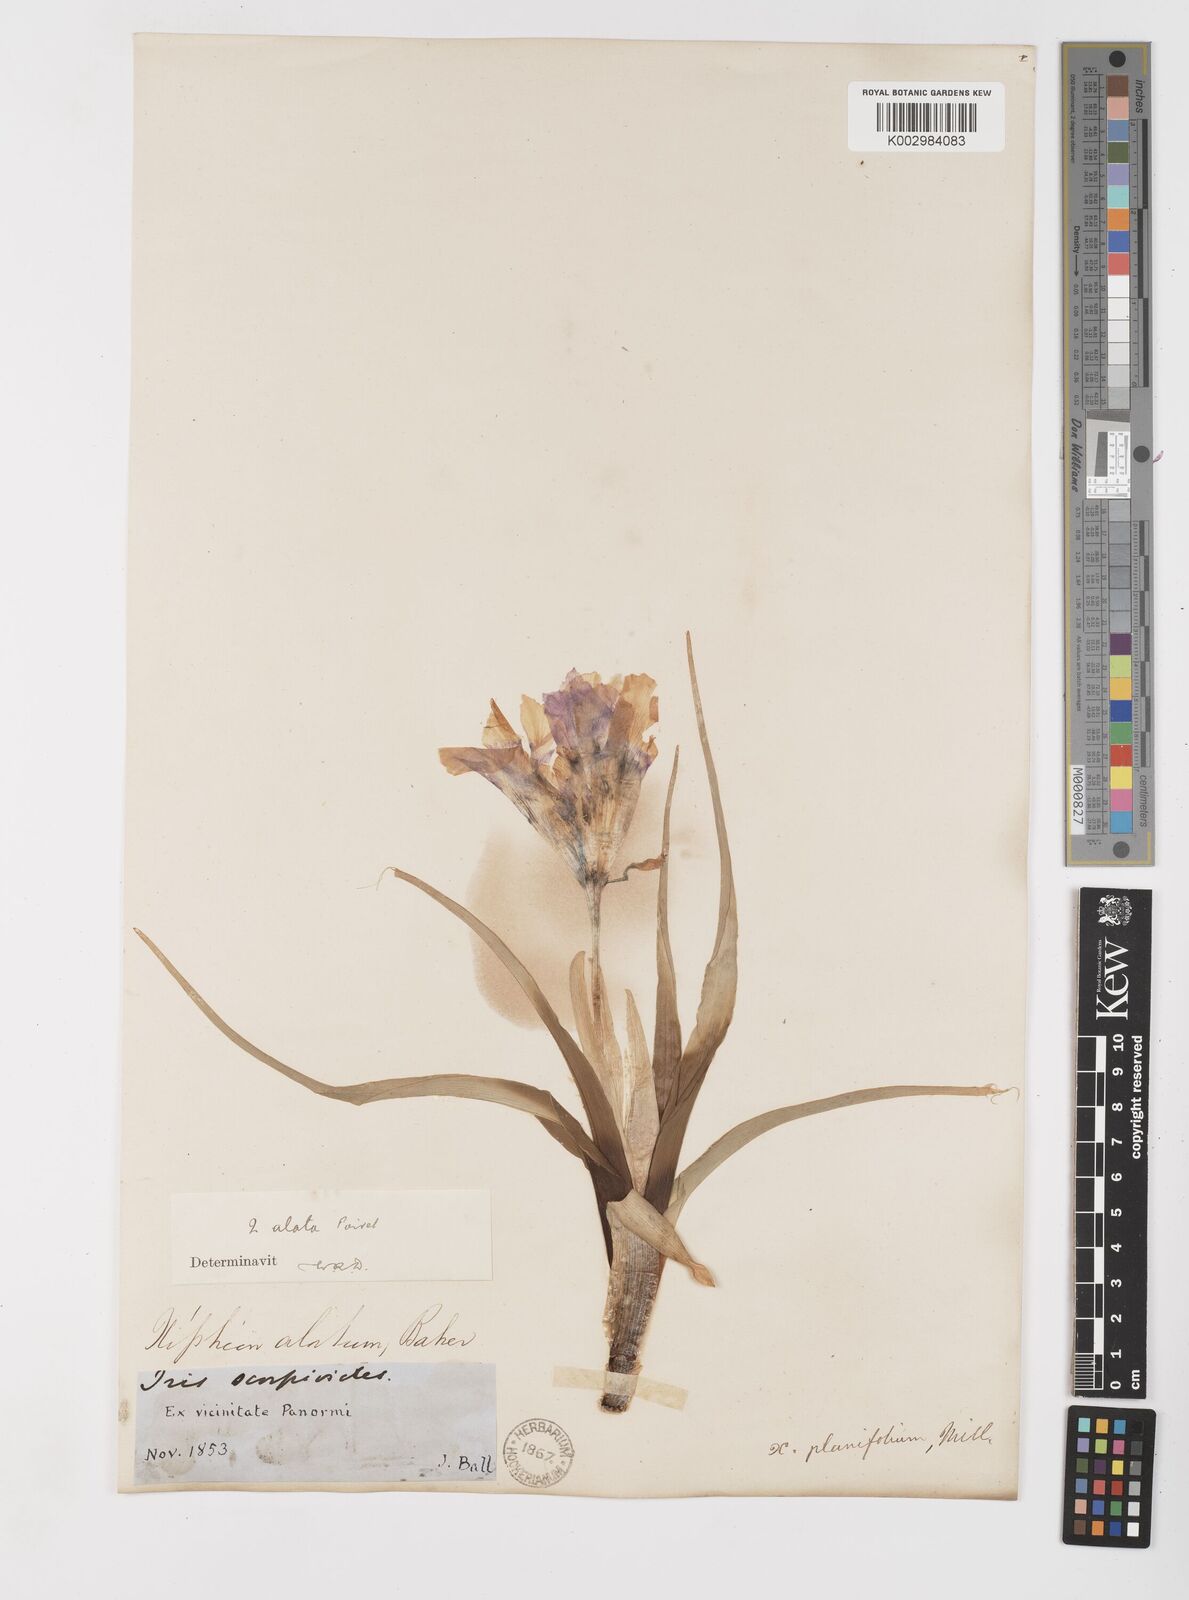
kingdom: Plantae
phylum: Tracheophyta
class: Liliopsida
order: Asparagales
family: Iridaceae
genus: Iris
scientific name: Iris planifolia
